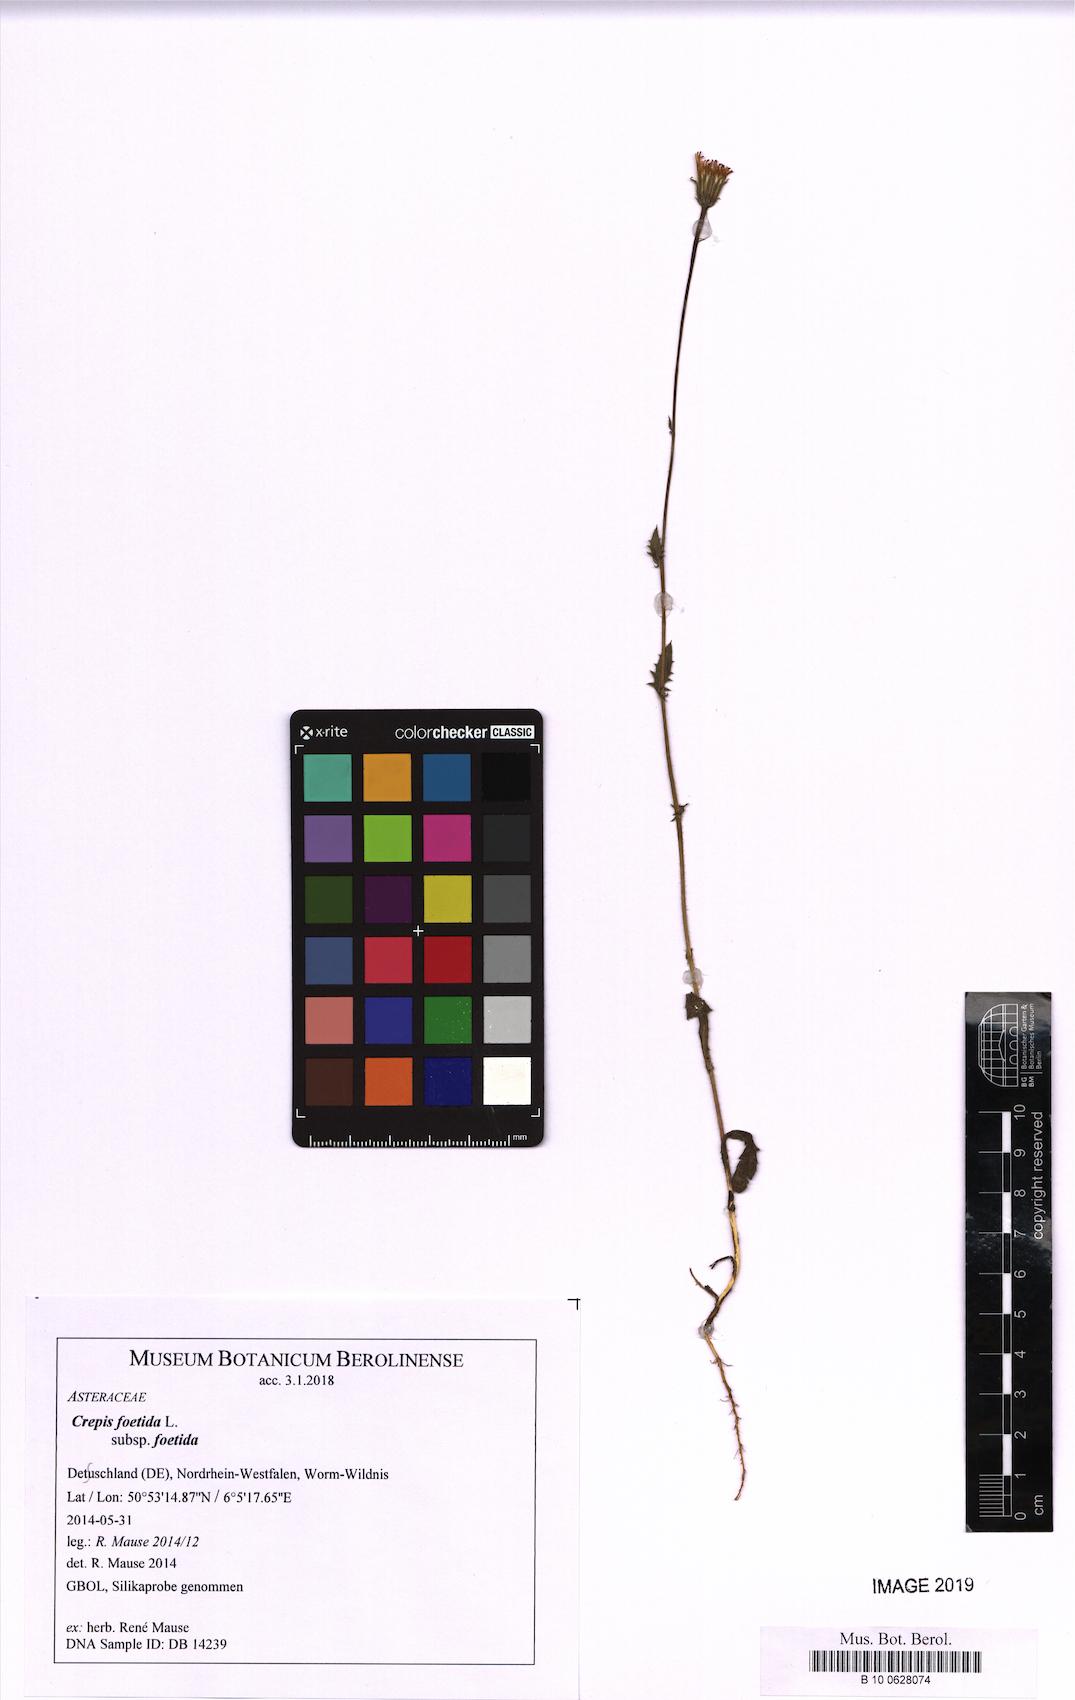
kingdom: Plantae
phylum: Tracheophyta
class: Magnoliopsida
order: Asterales
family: Asteraceae
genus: Crepis
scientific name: Crepis foetida
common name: Stinking hawk's-beard
